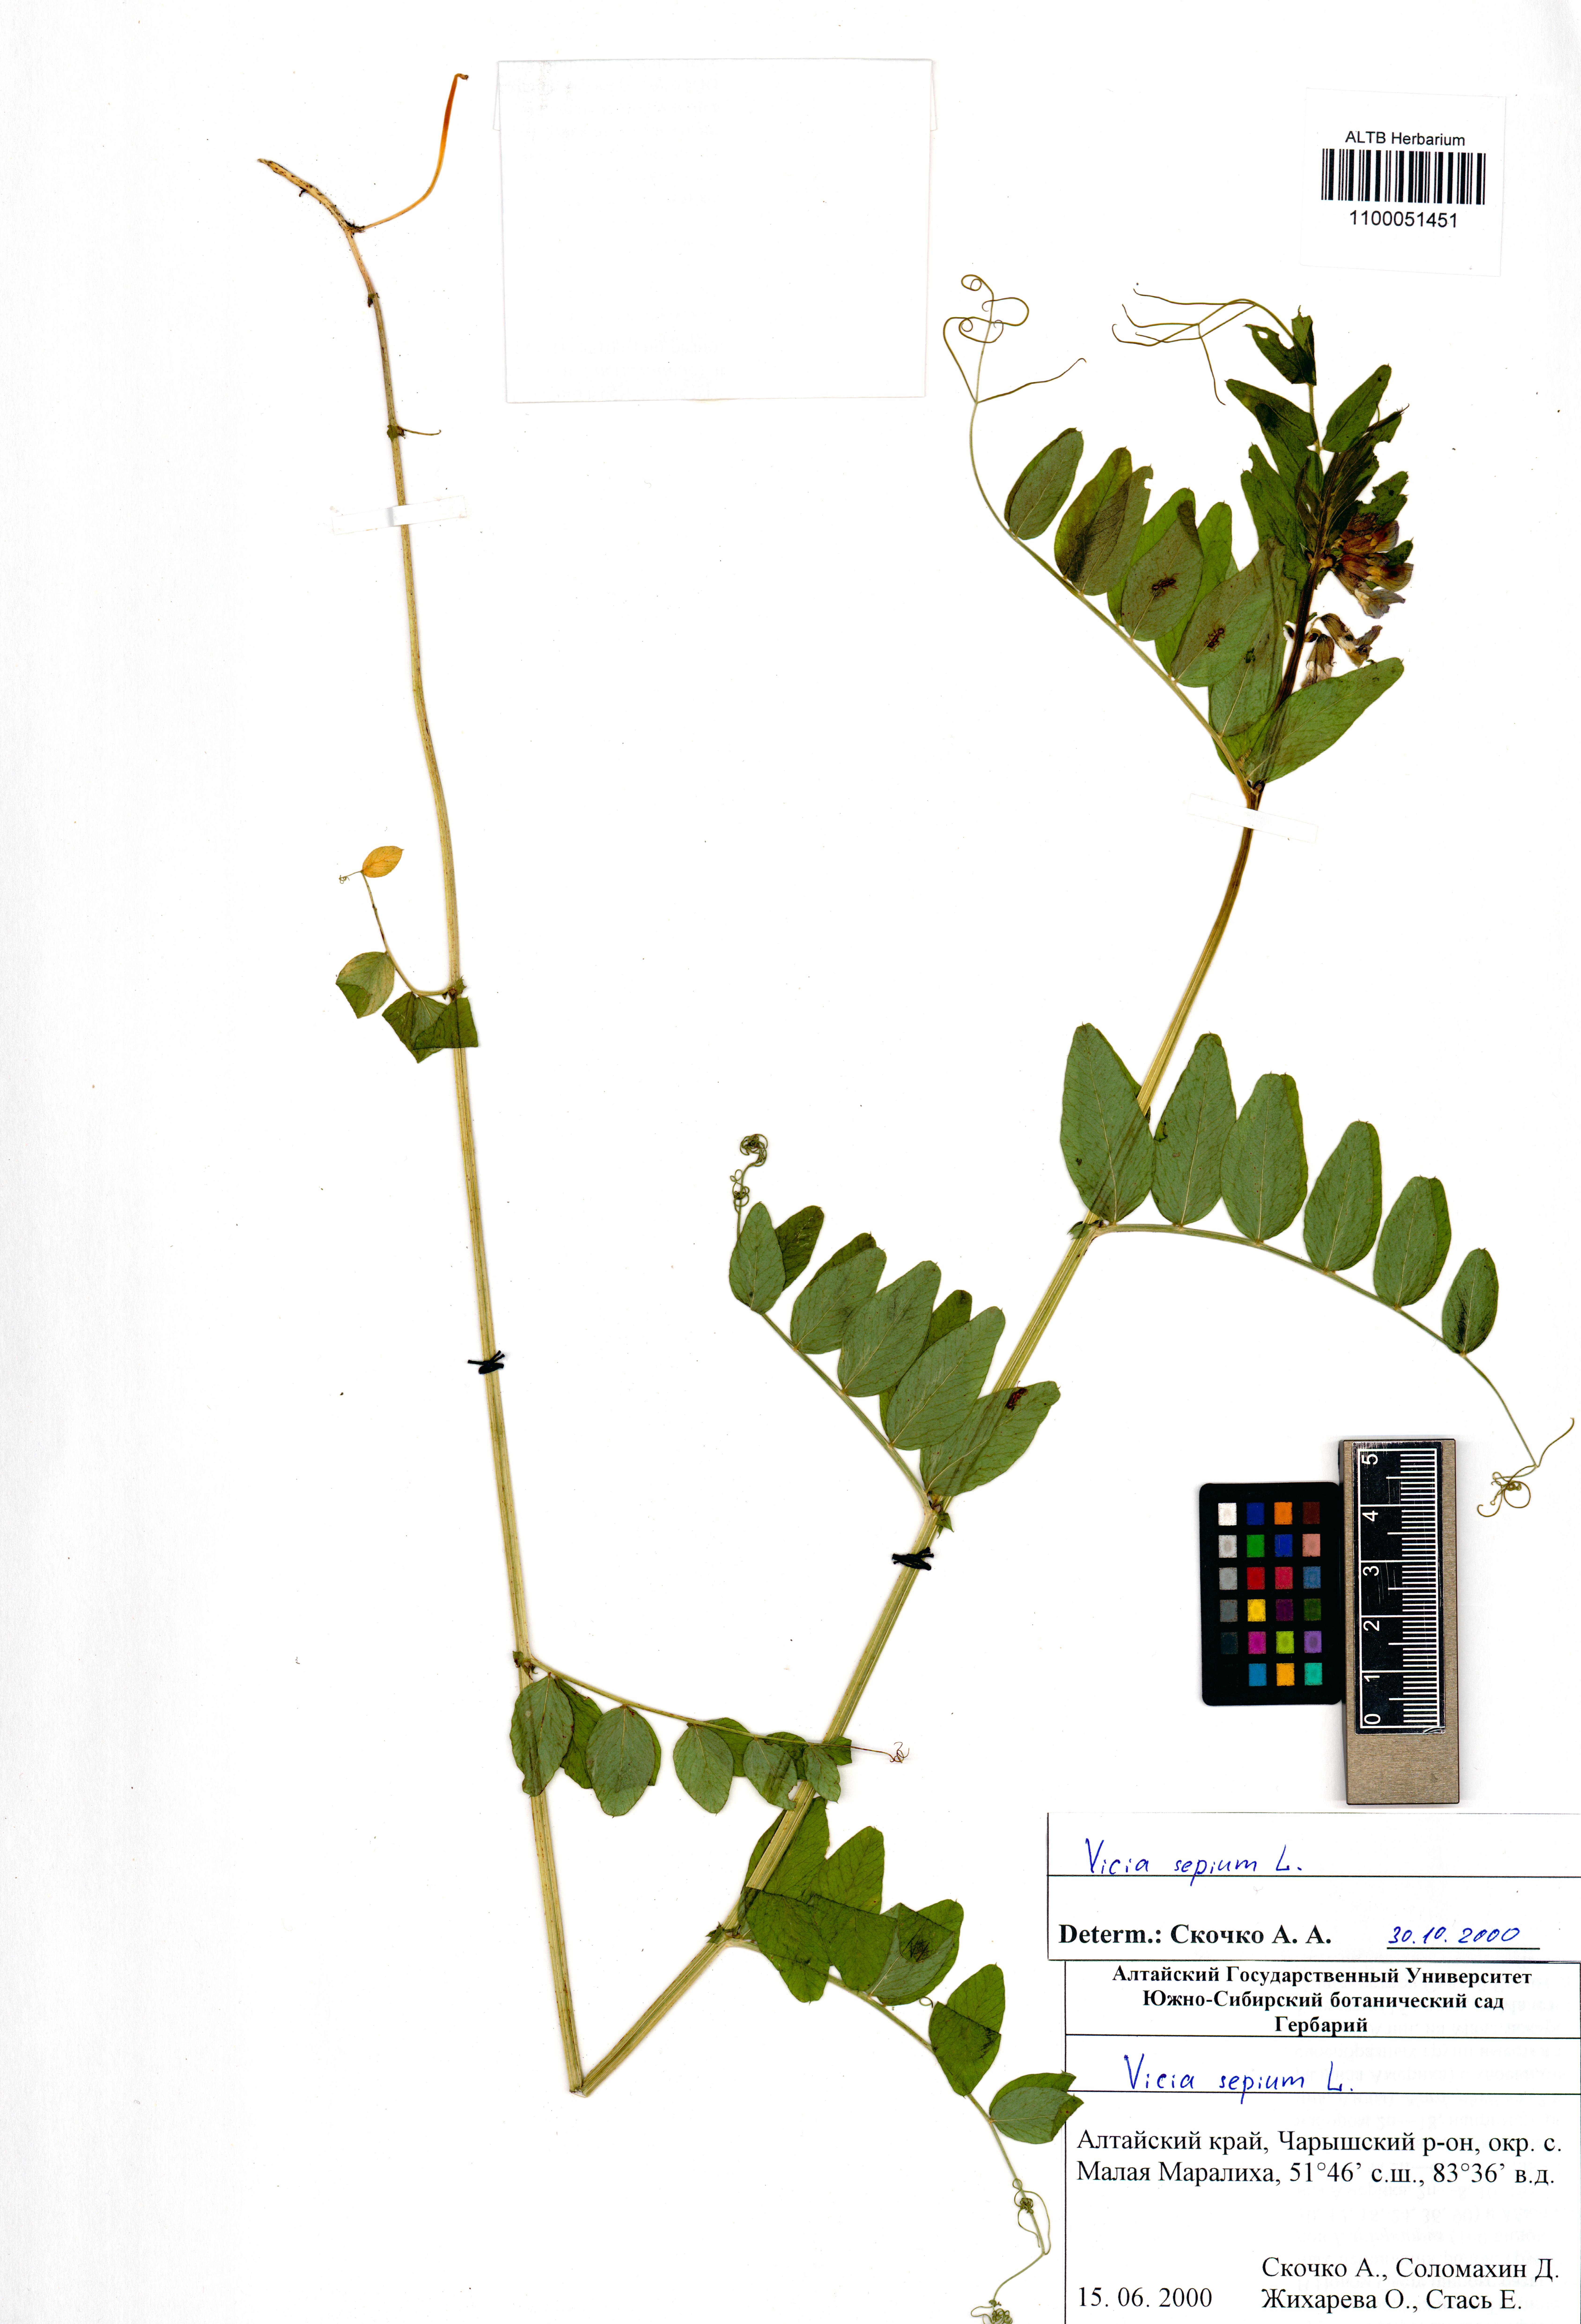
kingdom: Plantae
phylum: Tracheophyta
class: Magnoliopsida
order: Fabales
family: Fabaceae
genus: Vicia
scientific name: Vicia sepium
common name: Bush vetch
